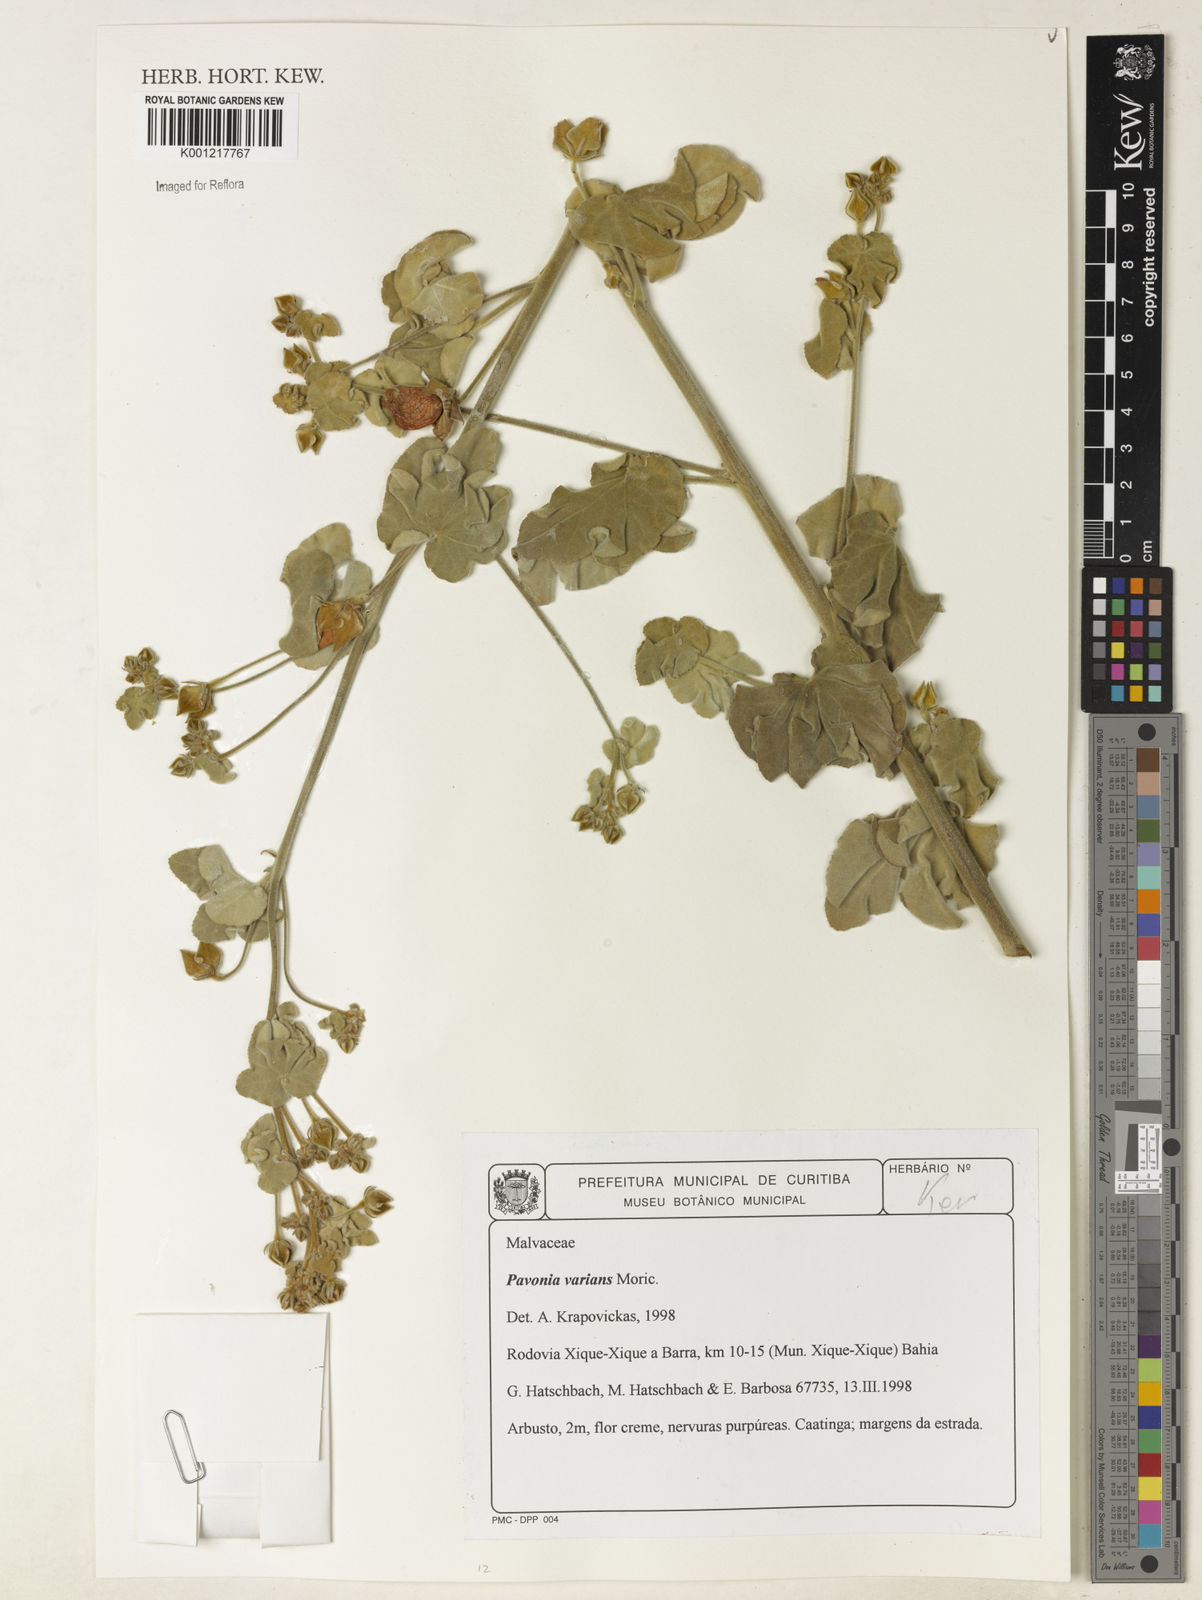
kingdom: Plantae
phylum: Tracheophyta
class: Magnoliopsida
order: Malvales
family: Malvaceae
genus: Pavonia
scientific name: Pavonia varians
